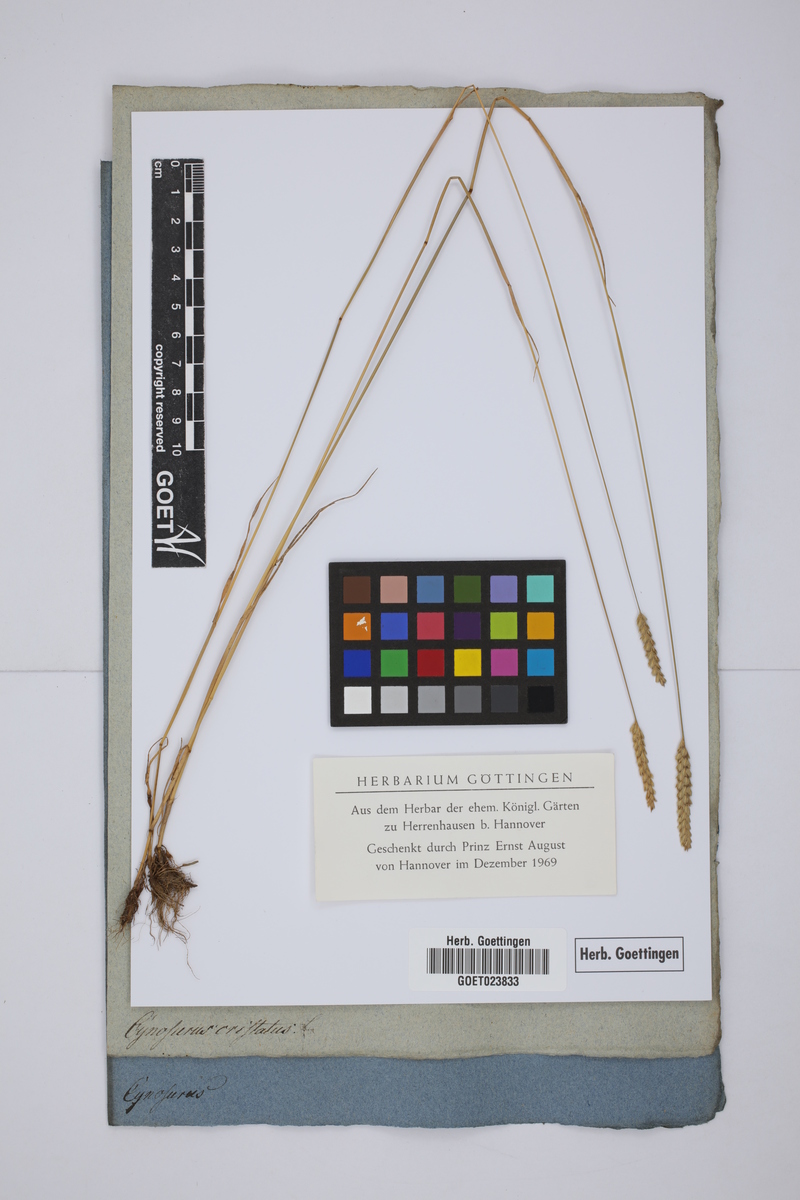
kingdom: Plantae
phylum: Tracheophyta
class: Liliopsida
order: Poales
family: Poaceae
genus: Cynosurus
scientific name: Cynosurus cristatus
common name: Crested dog's-tail
